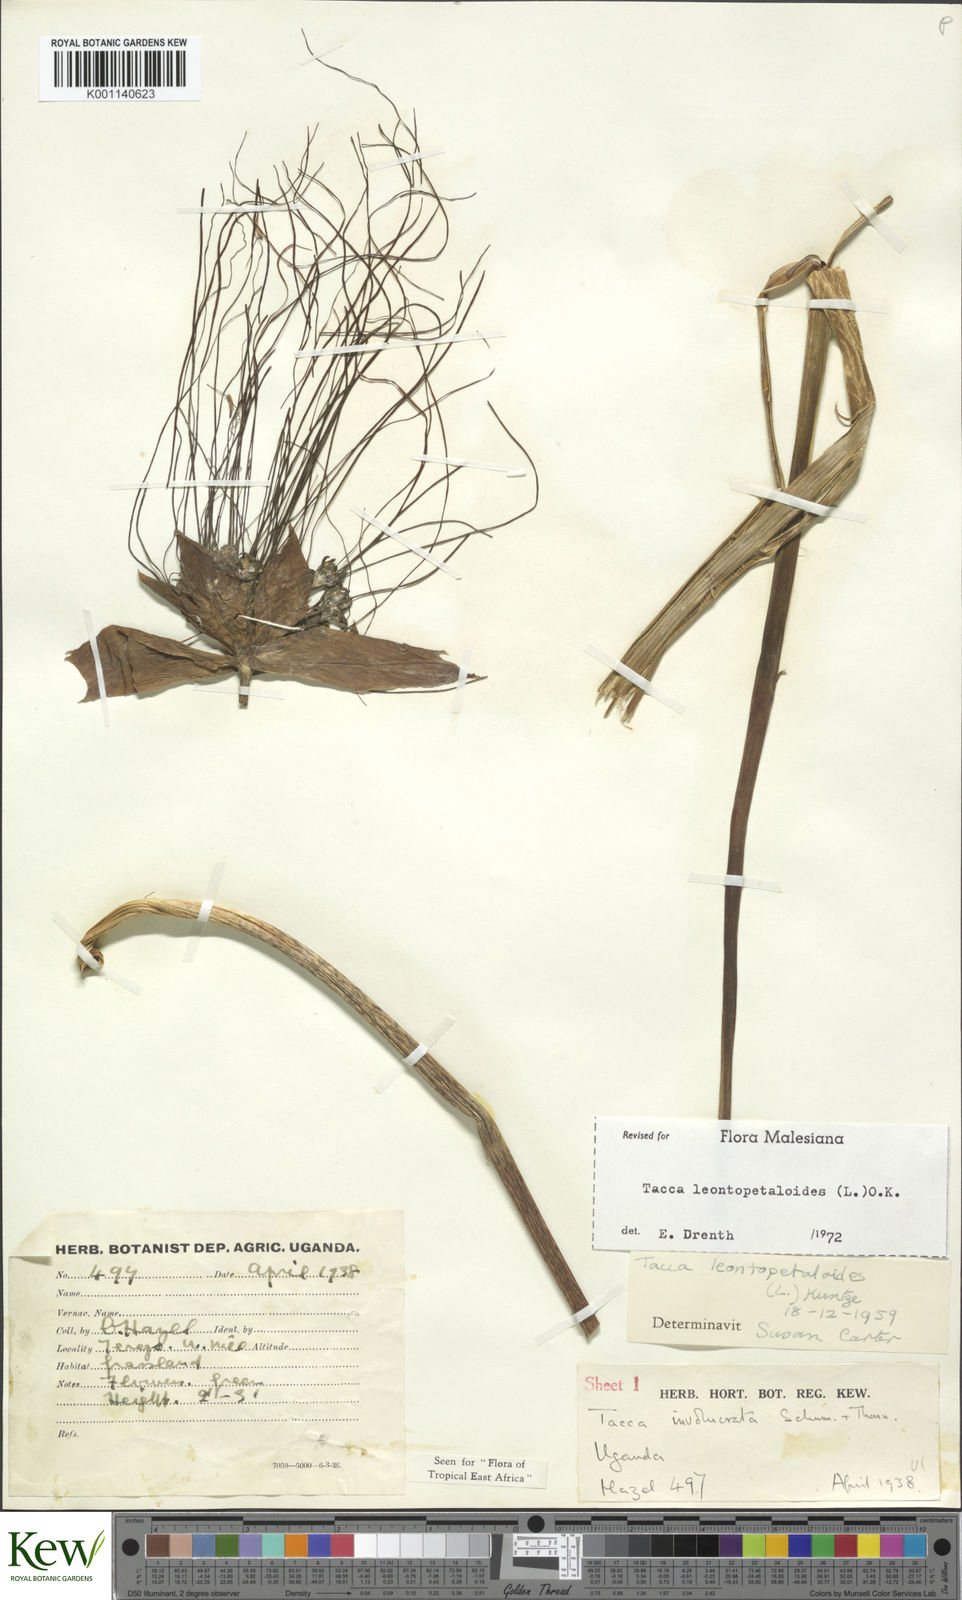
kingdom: Plantae
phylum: Tracheophyta
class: Liliopsida
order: Dioscoreales
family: Dioscoreaceae
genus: Tacca
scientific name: Tacca leontopetaloides
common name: Arrowroot
